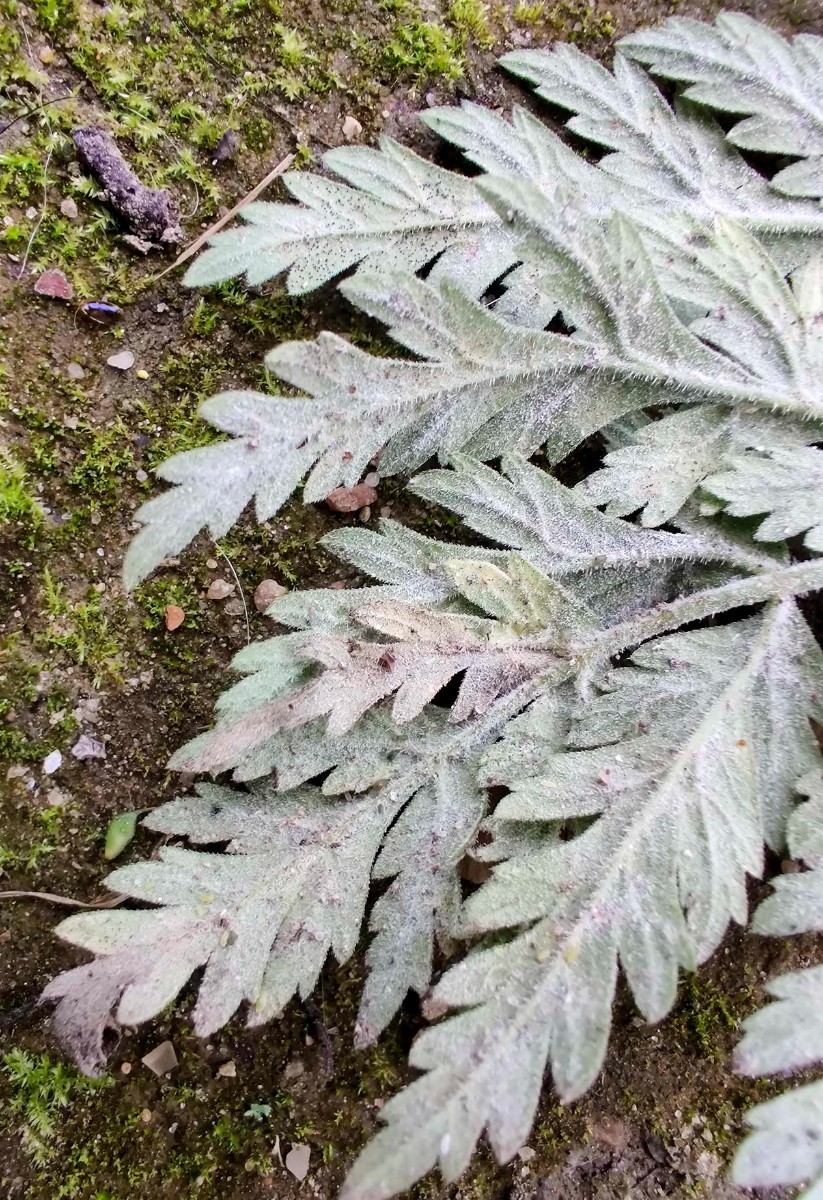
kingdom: Fungi
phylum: Ascomycota
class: Leotiomycetes
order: Helotiales
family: Erysiphaceae
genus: Erysiphe
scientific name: Erysiphe heraclei
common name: skærmplante-meldug
